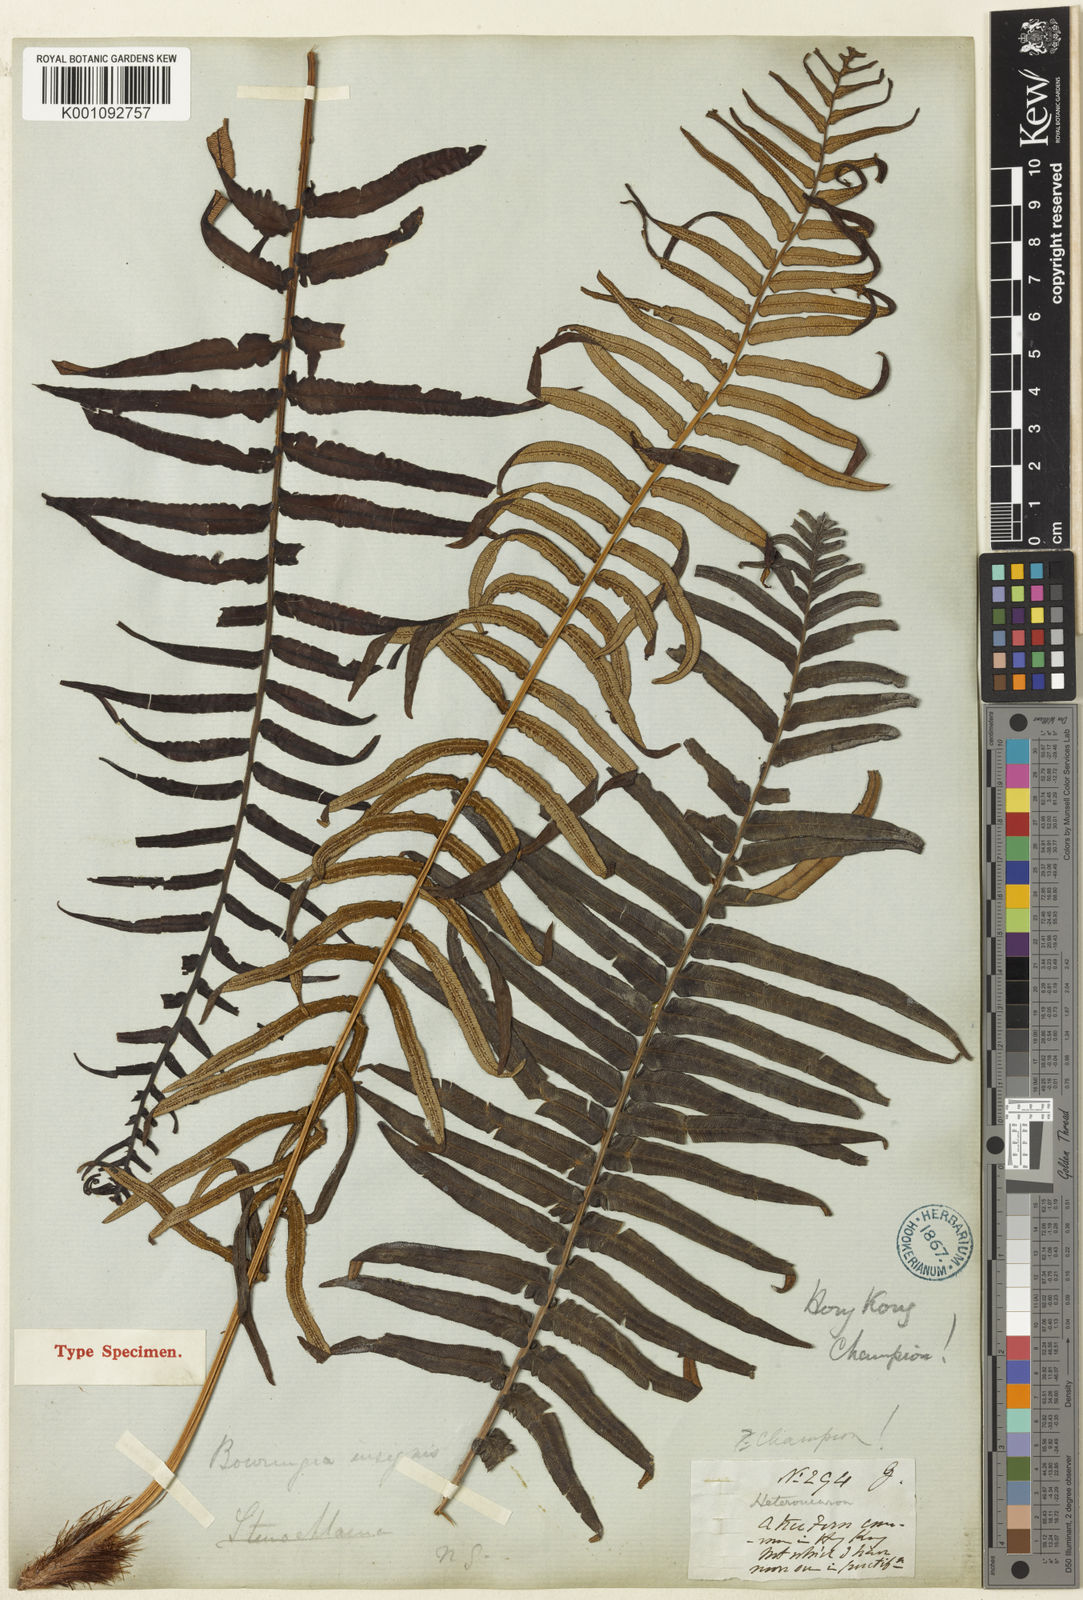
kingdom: Plantae
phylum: Tracheophyta
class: Polypodiopsida
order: Polypodiales
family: Blechnaceae
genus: Brainea
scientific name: Brainea insignis
